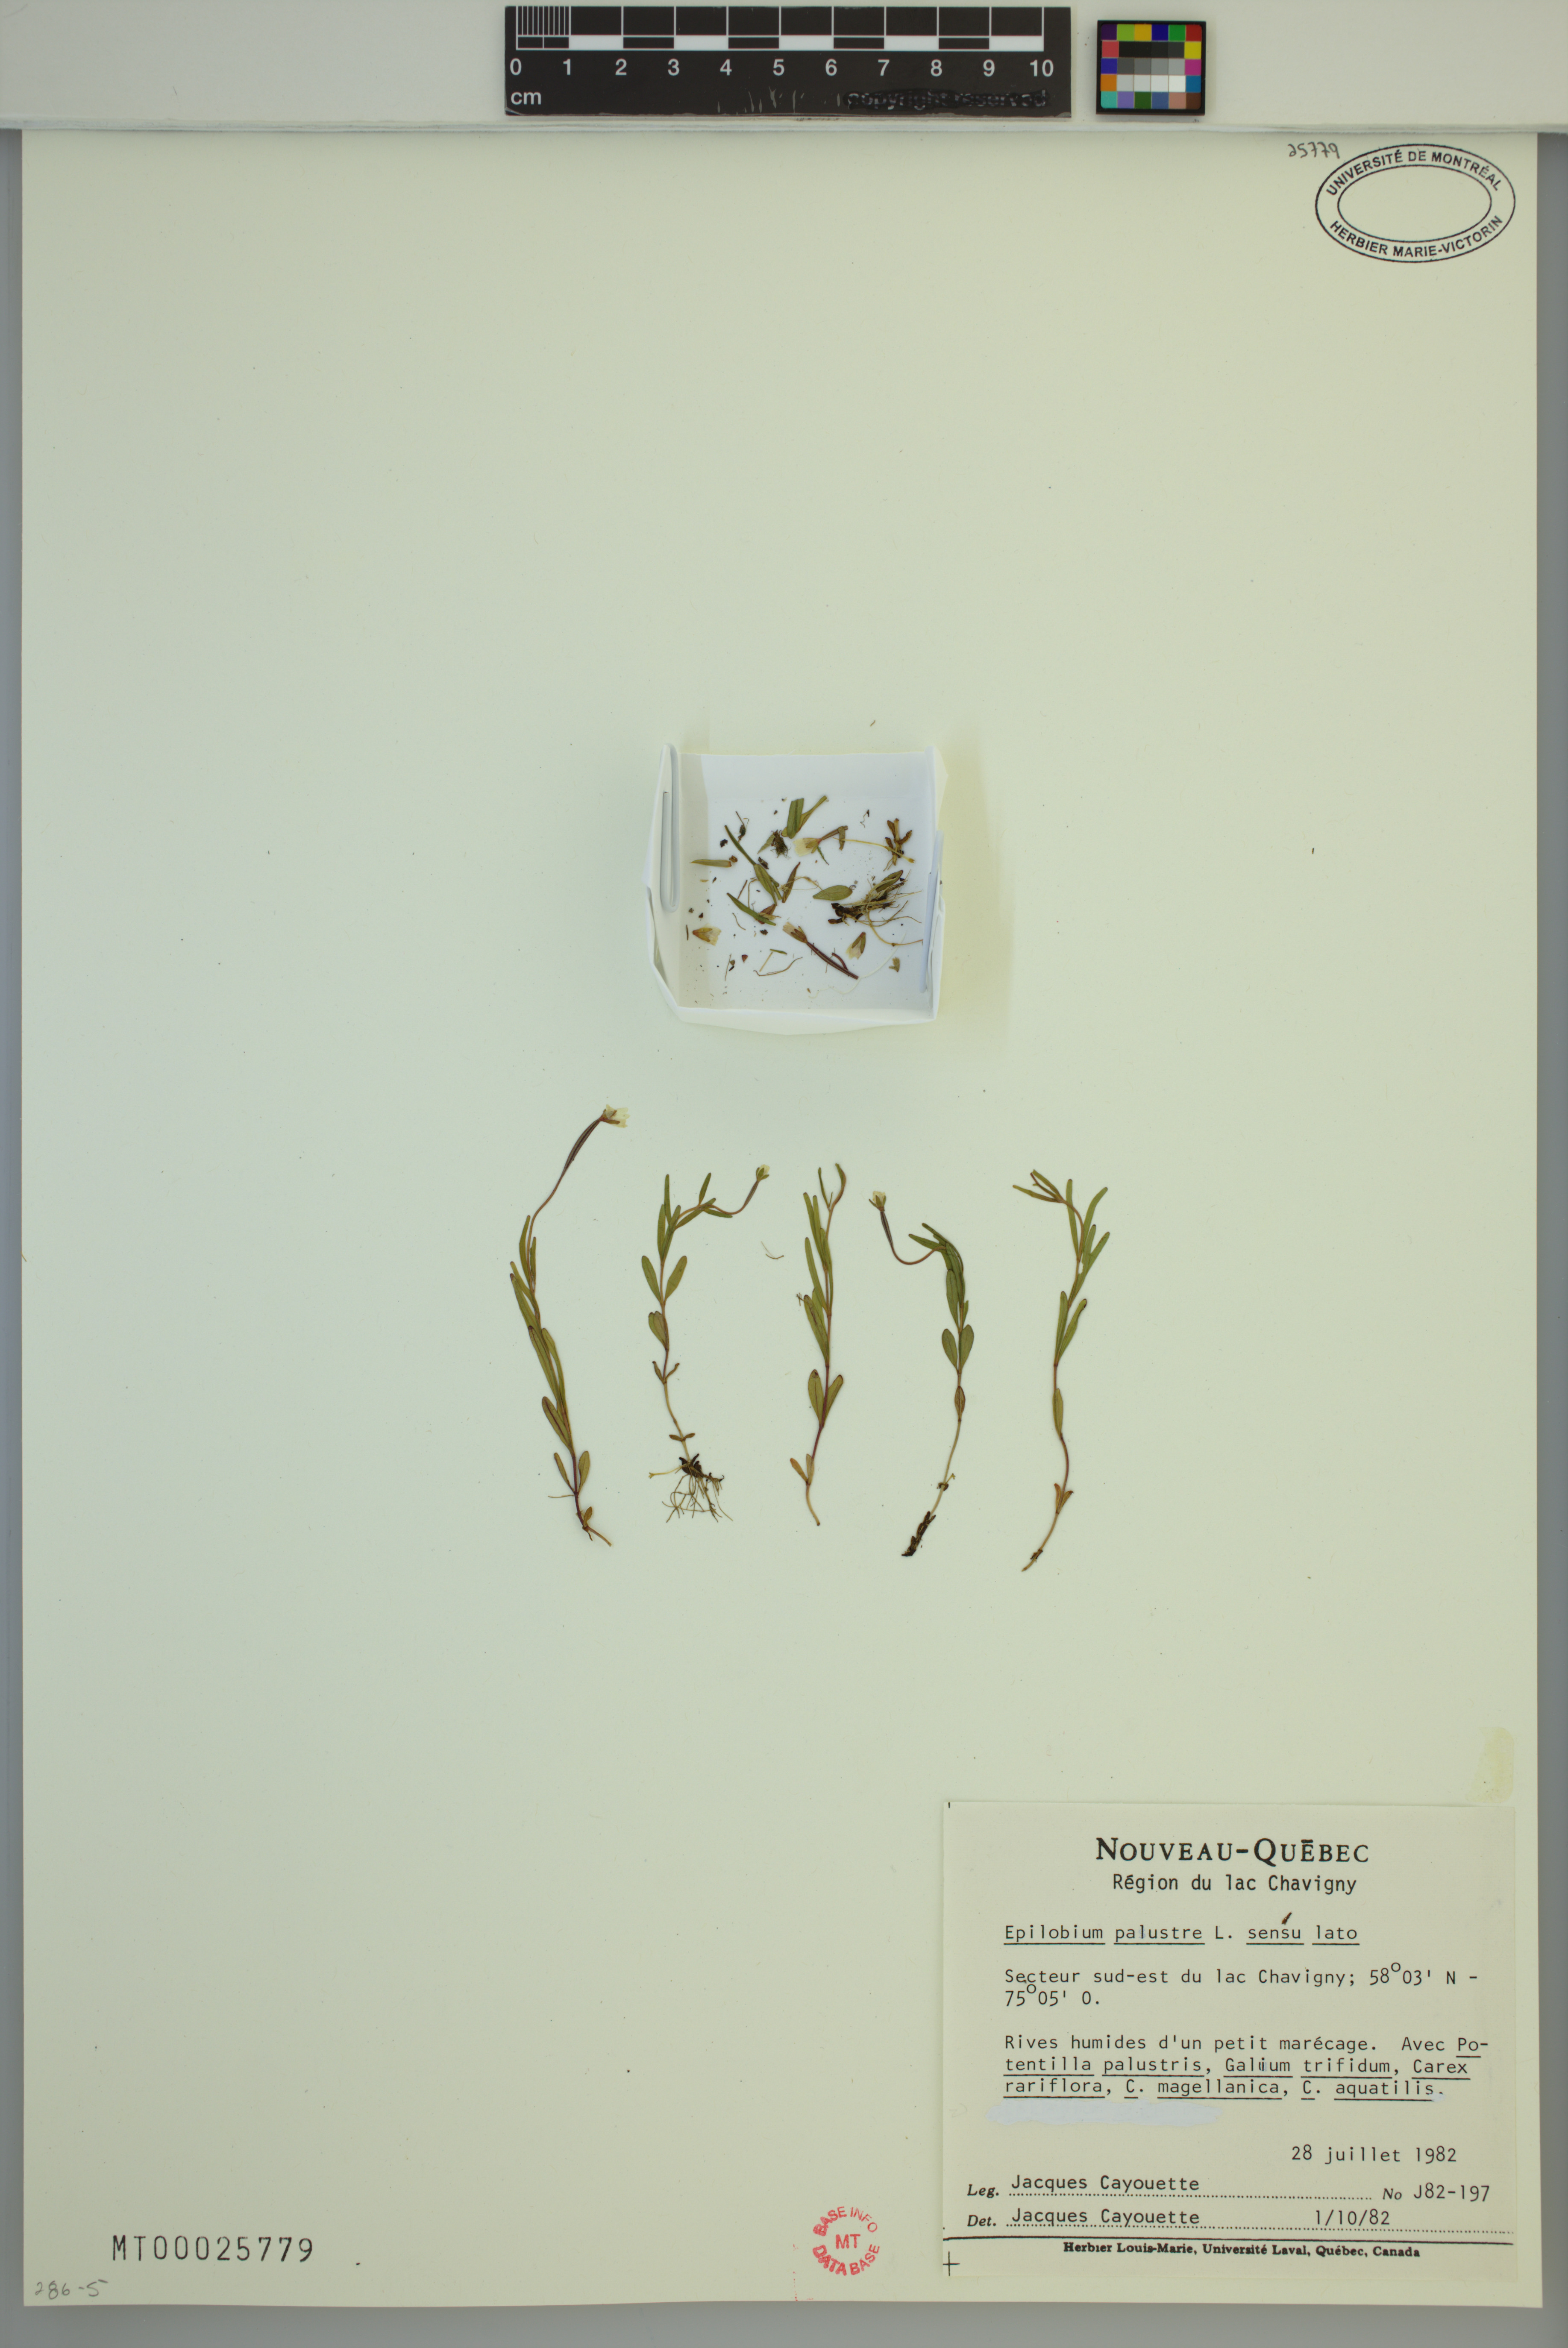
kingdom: Plantae
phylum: Tracheophyta
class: Magnoliopsida
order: Myrtales
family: Onagraceae
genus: Epilobium
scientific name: Epilobium palustre
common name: Marsh willowherb
